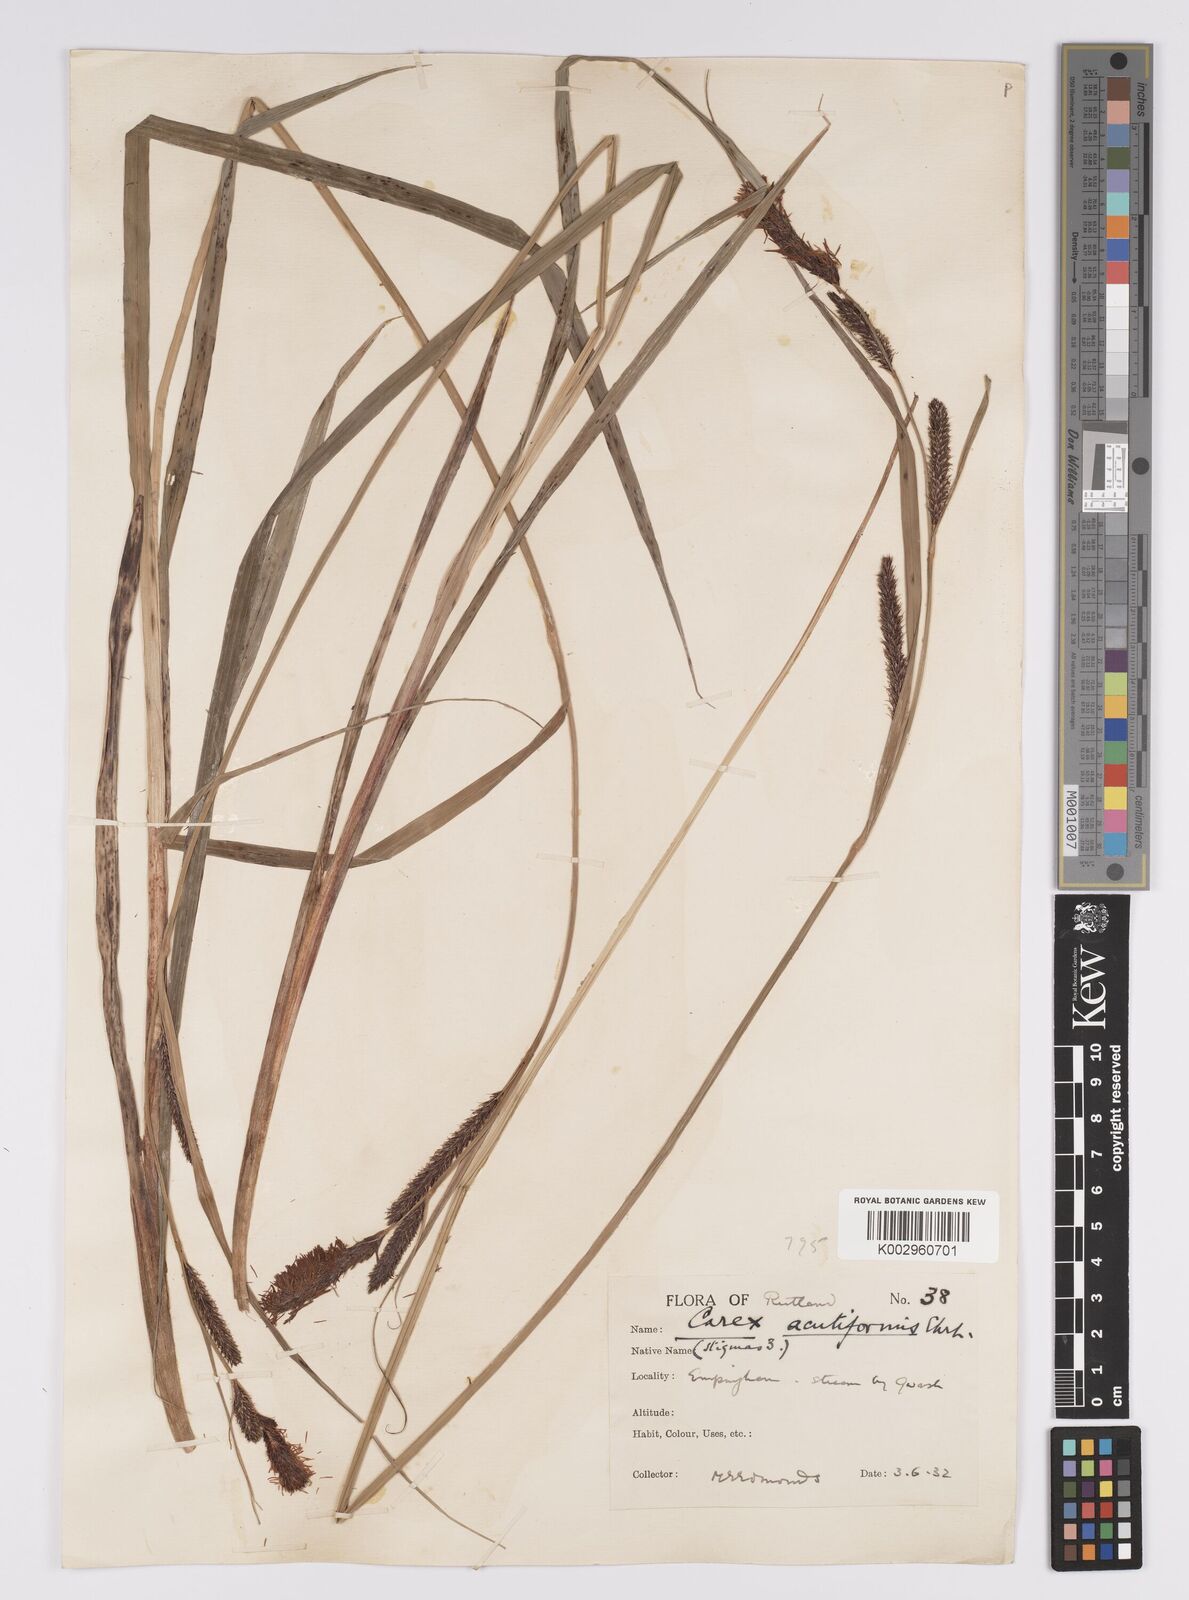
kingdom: Plantae
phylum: Tracheophyta
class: Liliopsida
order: Poales
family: Cyperaceae
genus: Carex
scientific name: Carex acutiformis
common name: Lesser pond-sedge
